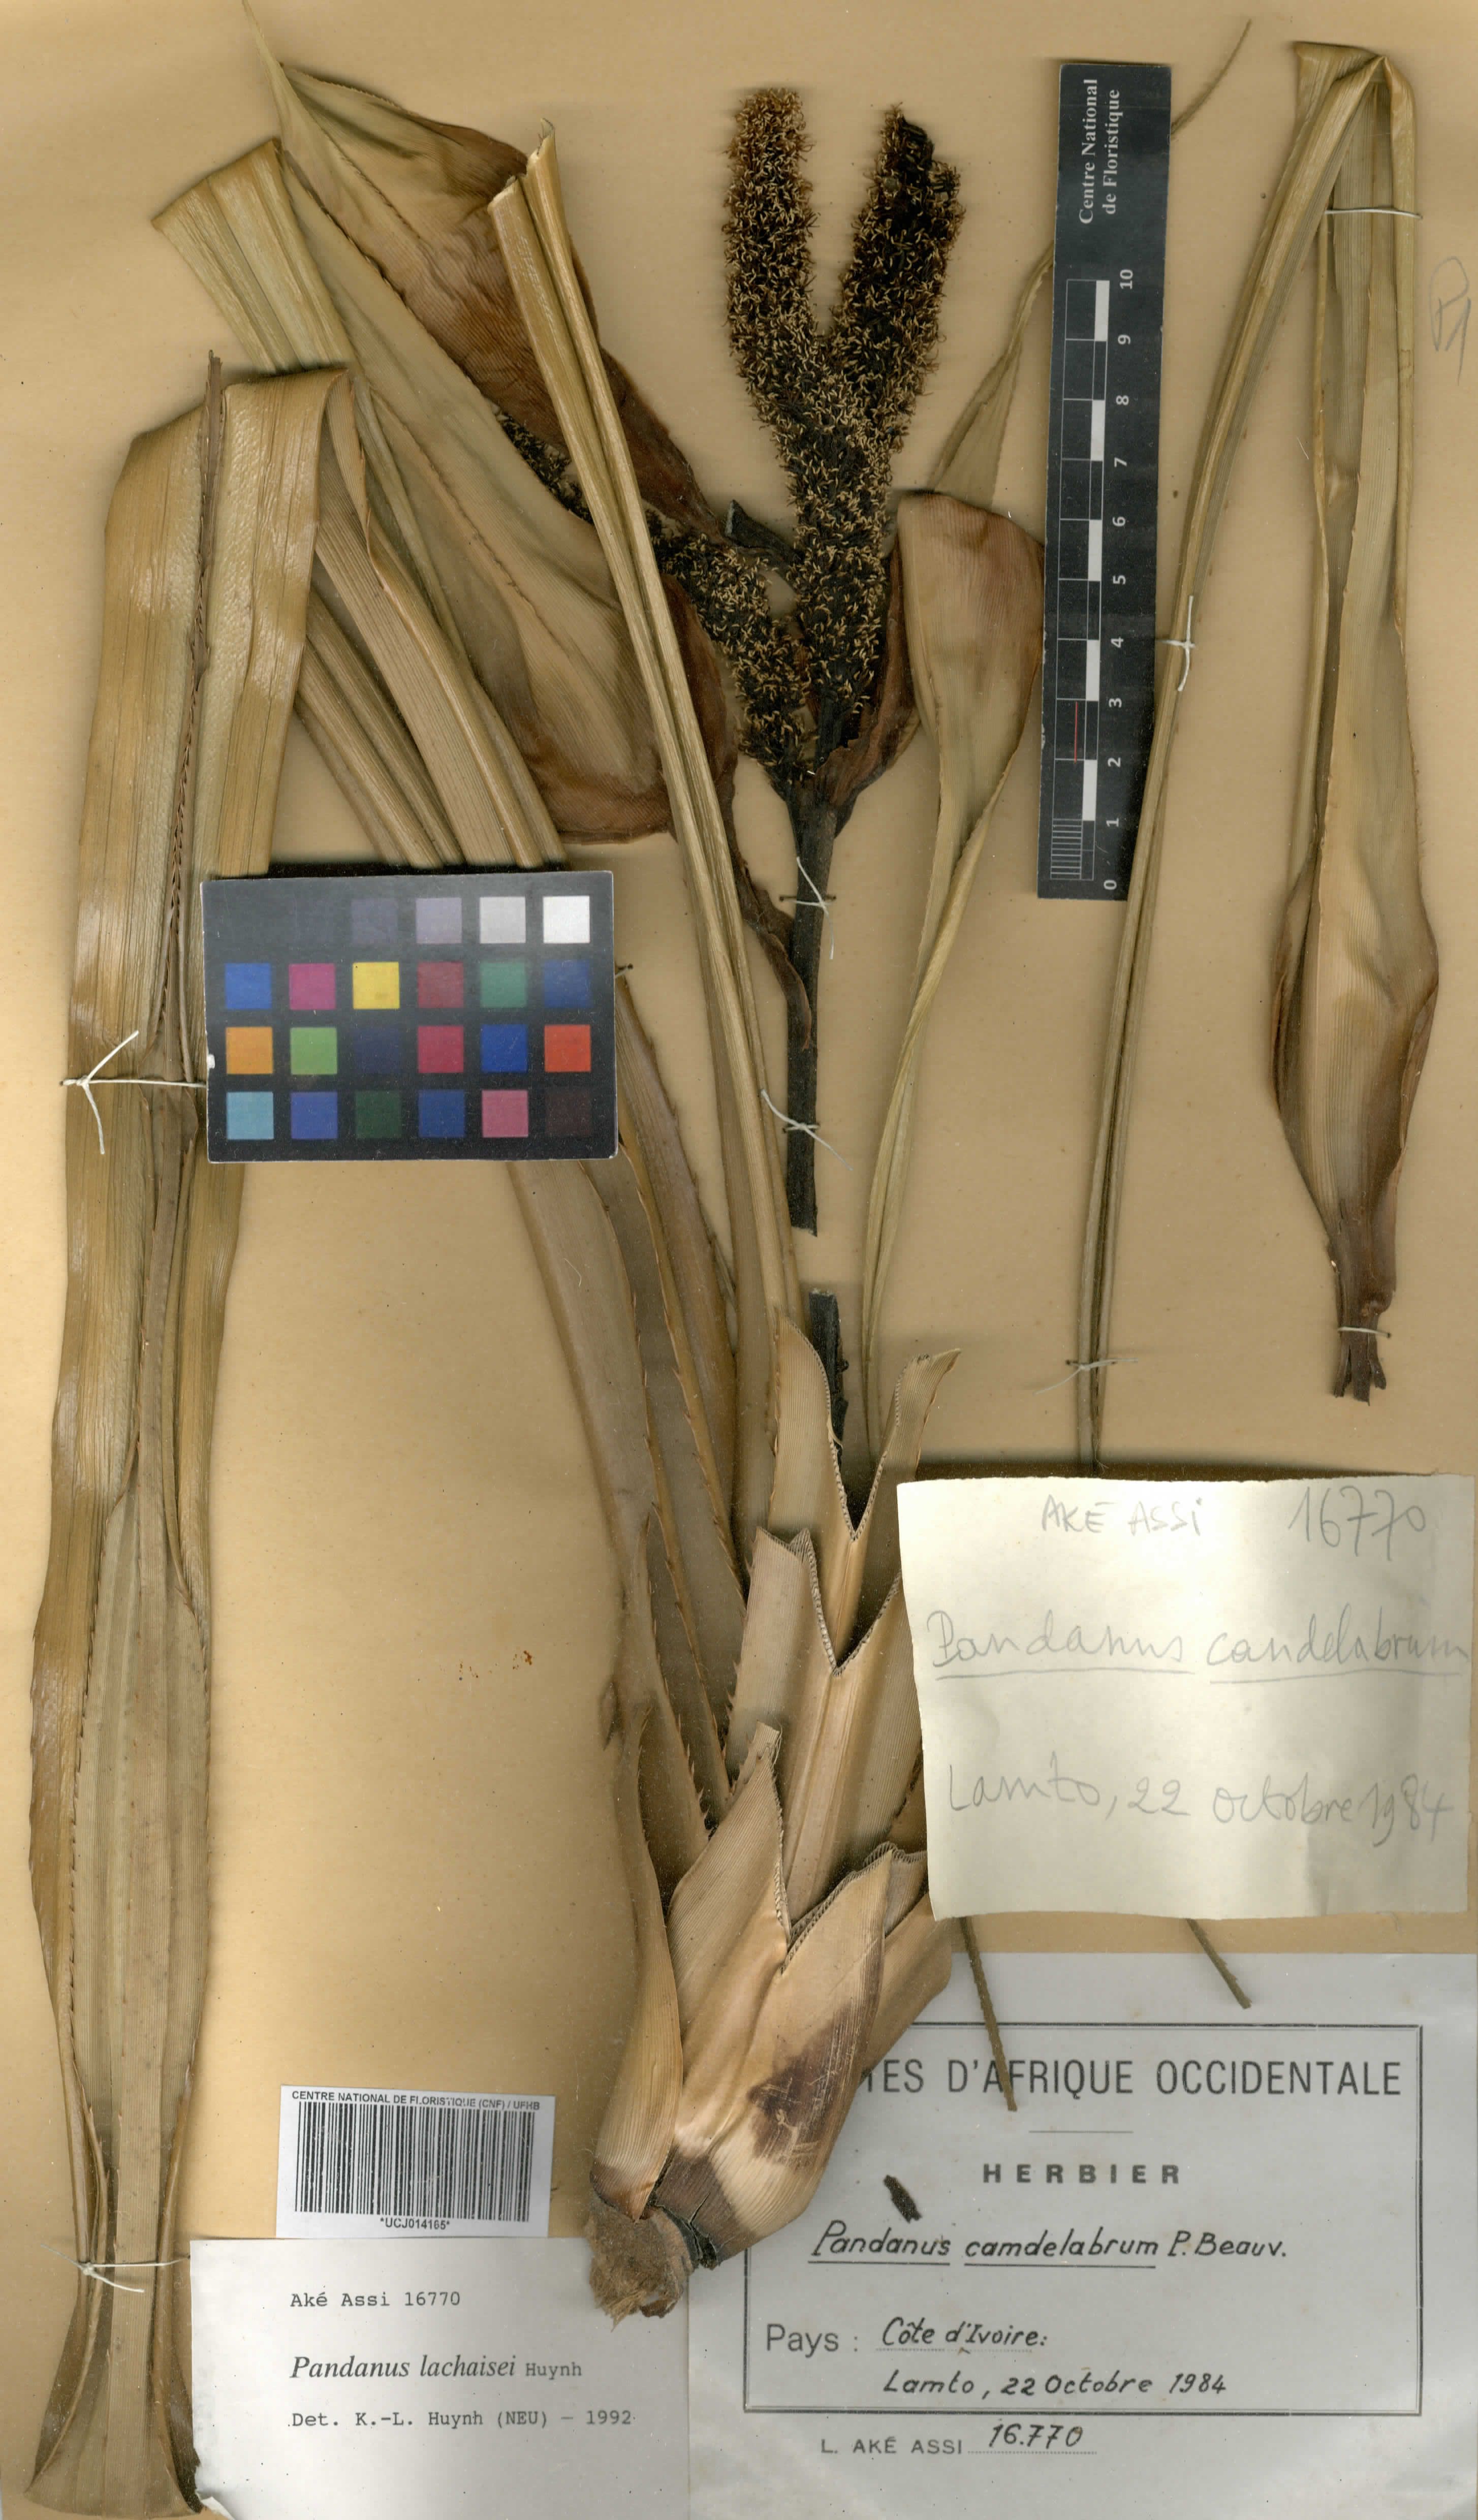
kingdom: Plantae
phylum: Tracheophyta
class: Liliopsida
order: Pandanales
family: Pandanaceae
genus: Pandanus
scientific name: Pandanus
